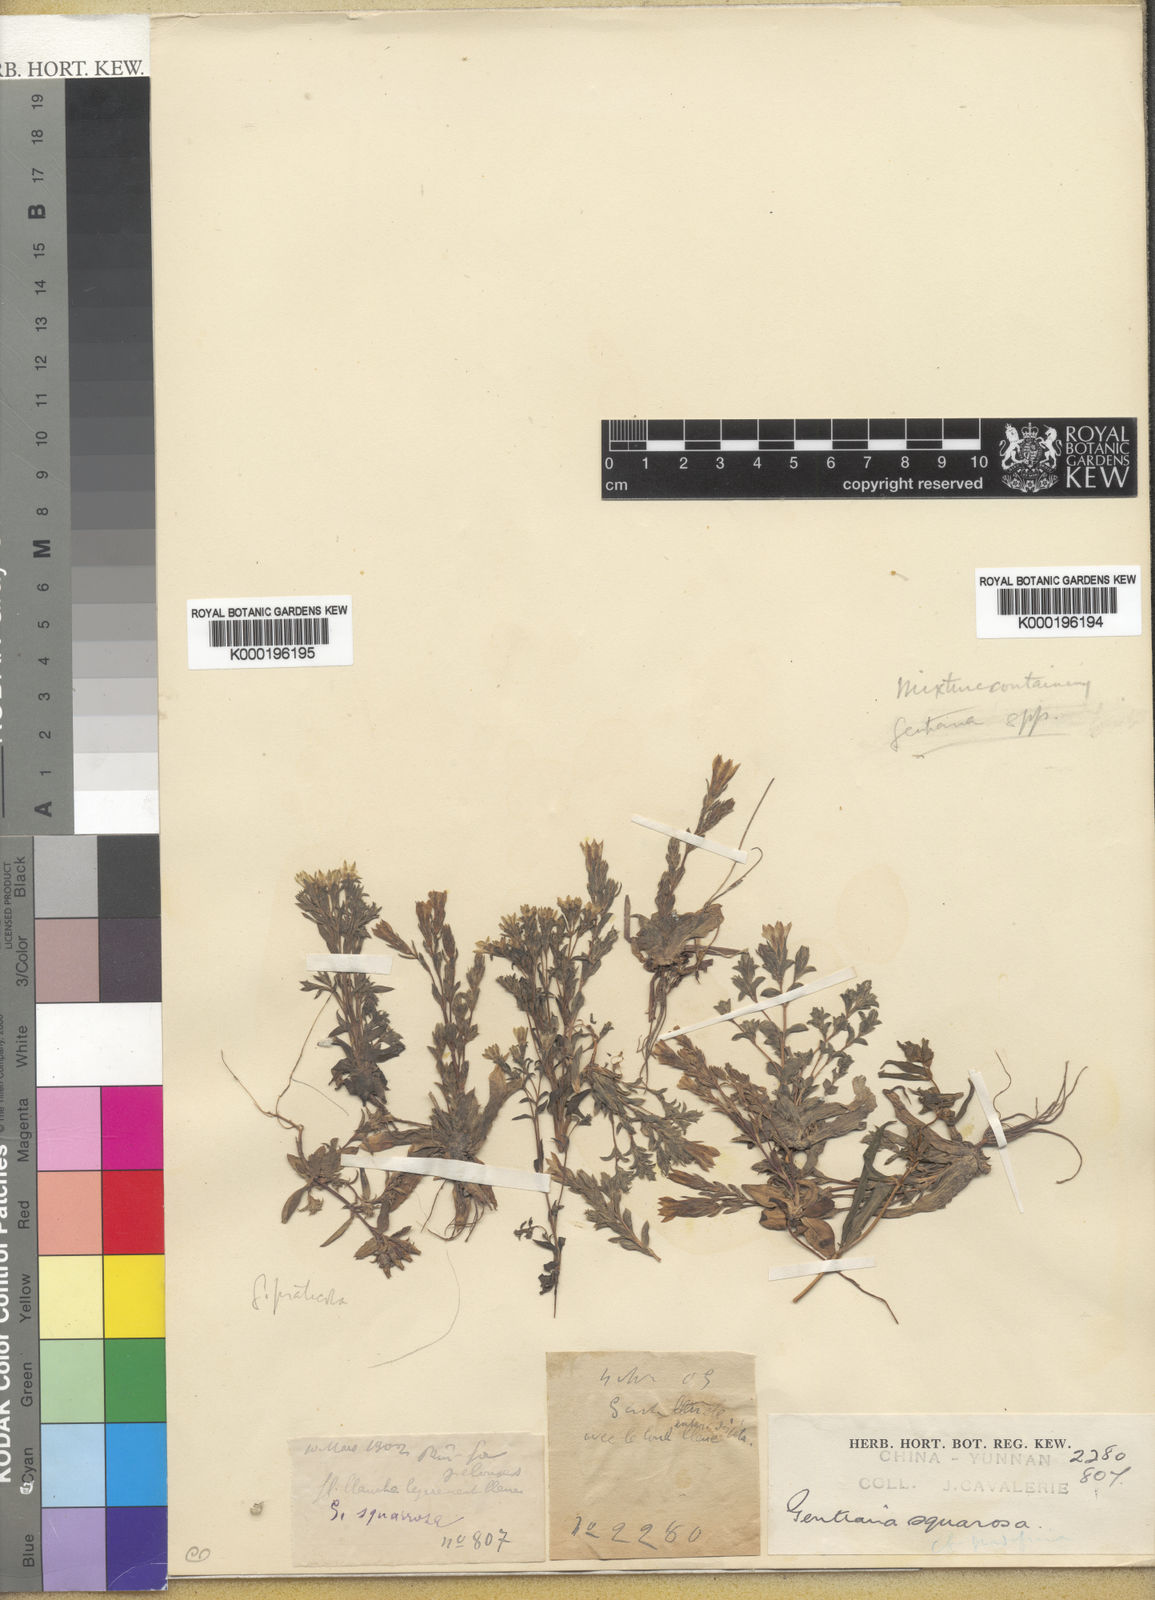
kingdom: Plantae
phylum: Tracheophyta
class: Magnoliopsida
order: Gentianales
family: Gentianaceae
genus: Gentiana
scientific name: Gentiana squarrosa
